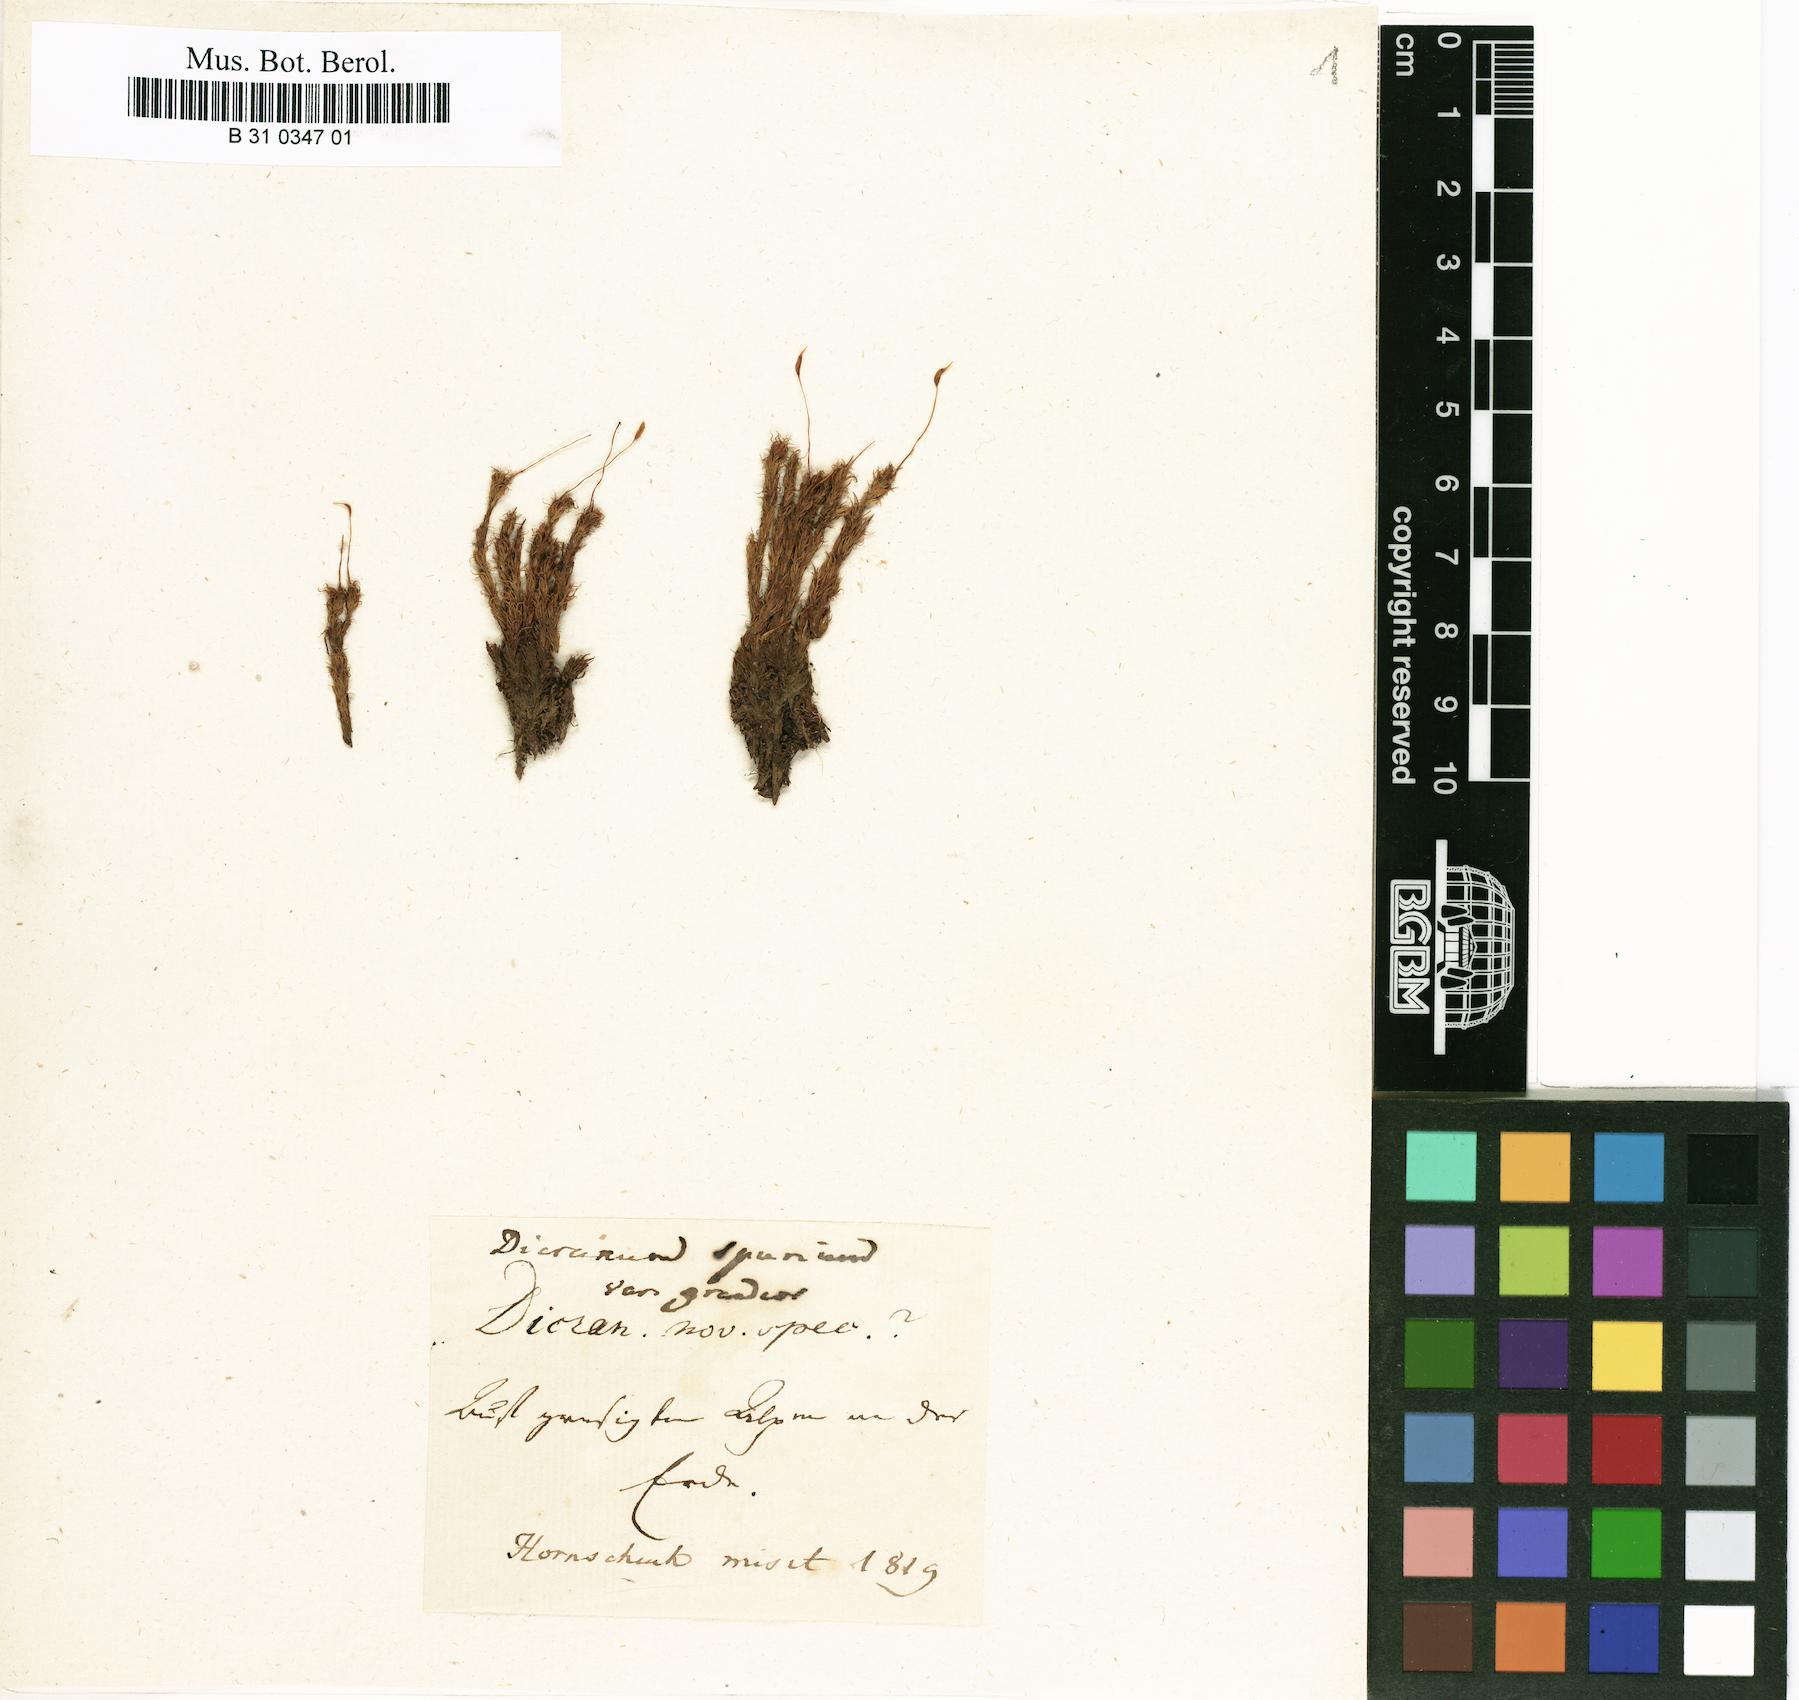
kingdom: Plantae
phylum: Bryophyta
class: Bryopsida
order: Dicranales
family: Dicranaceae
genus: Dicranum
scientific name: Dicranum spurium
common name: Spurred broom moss
